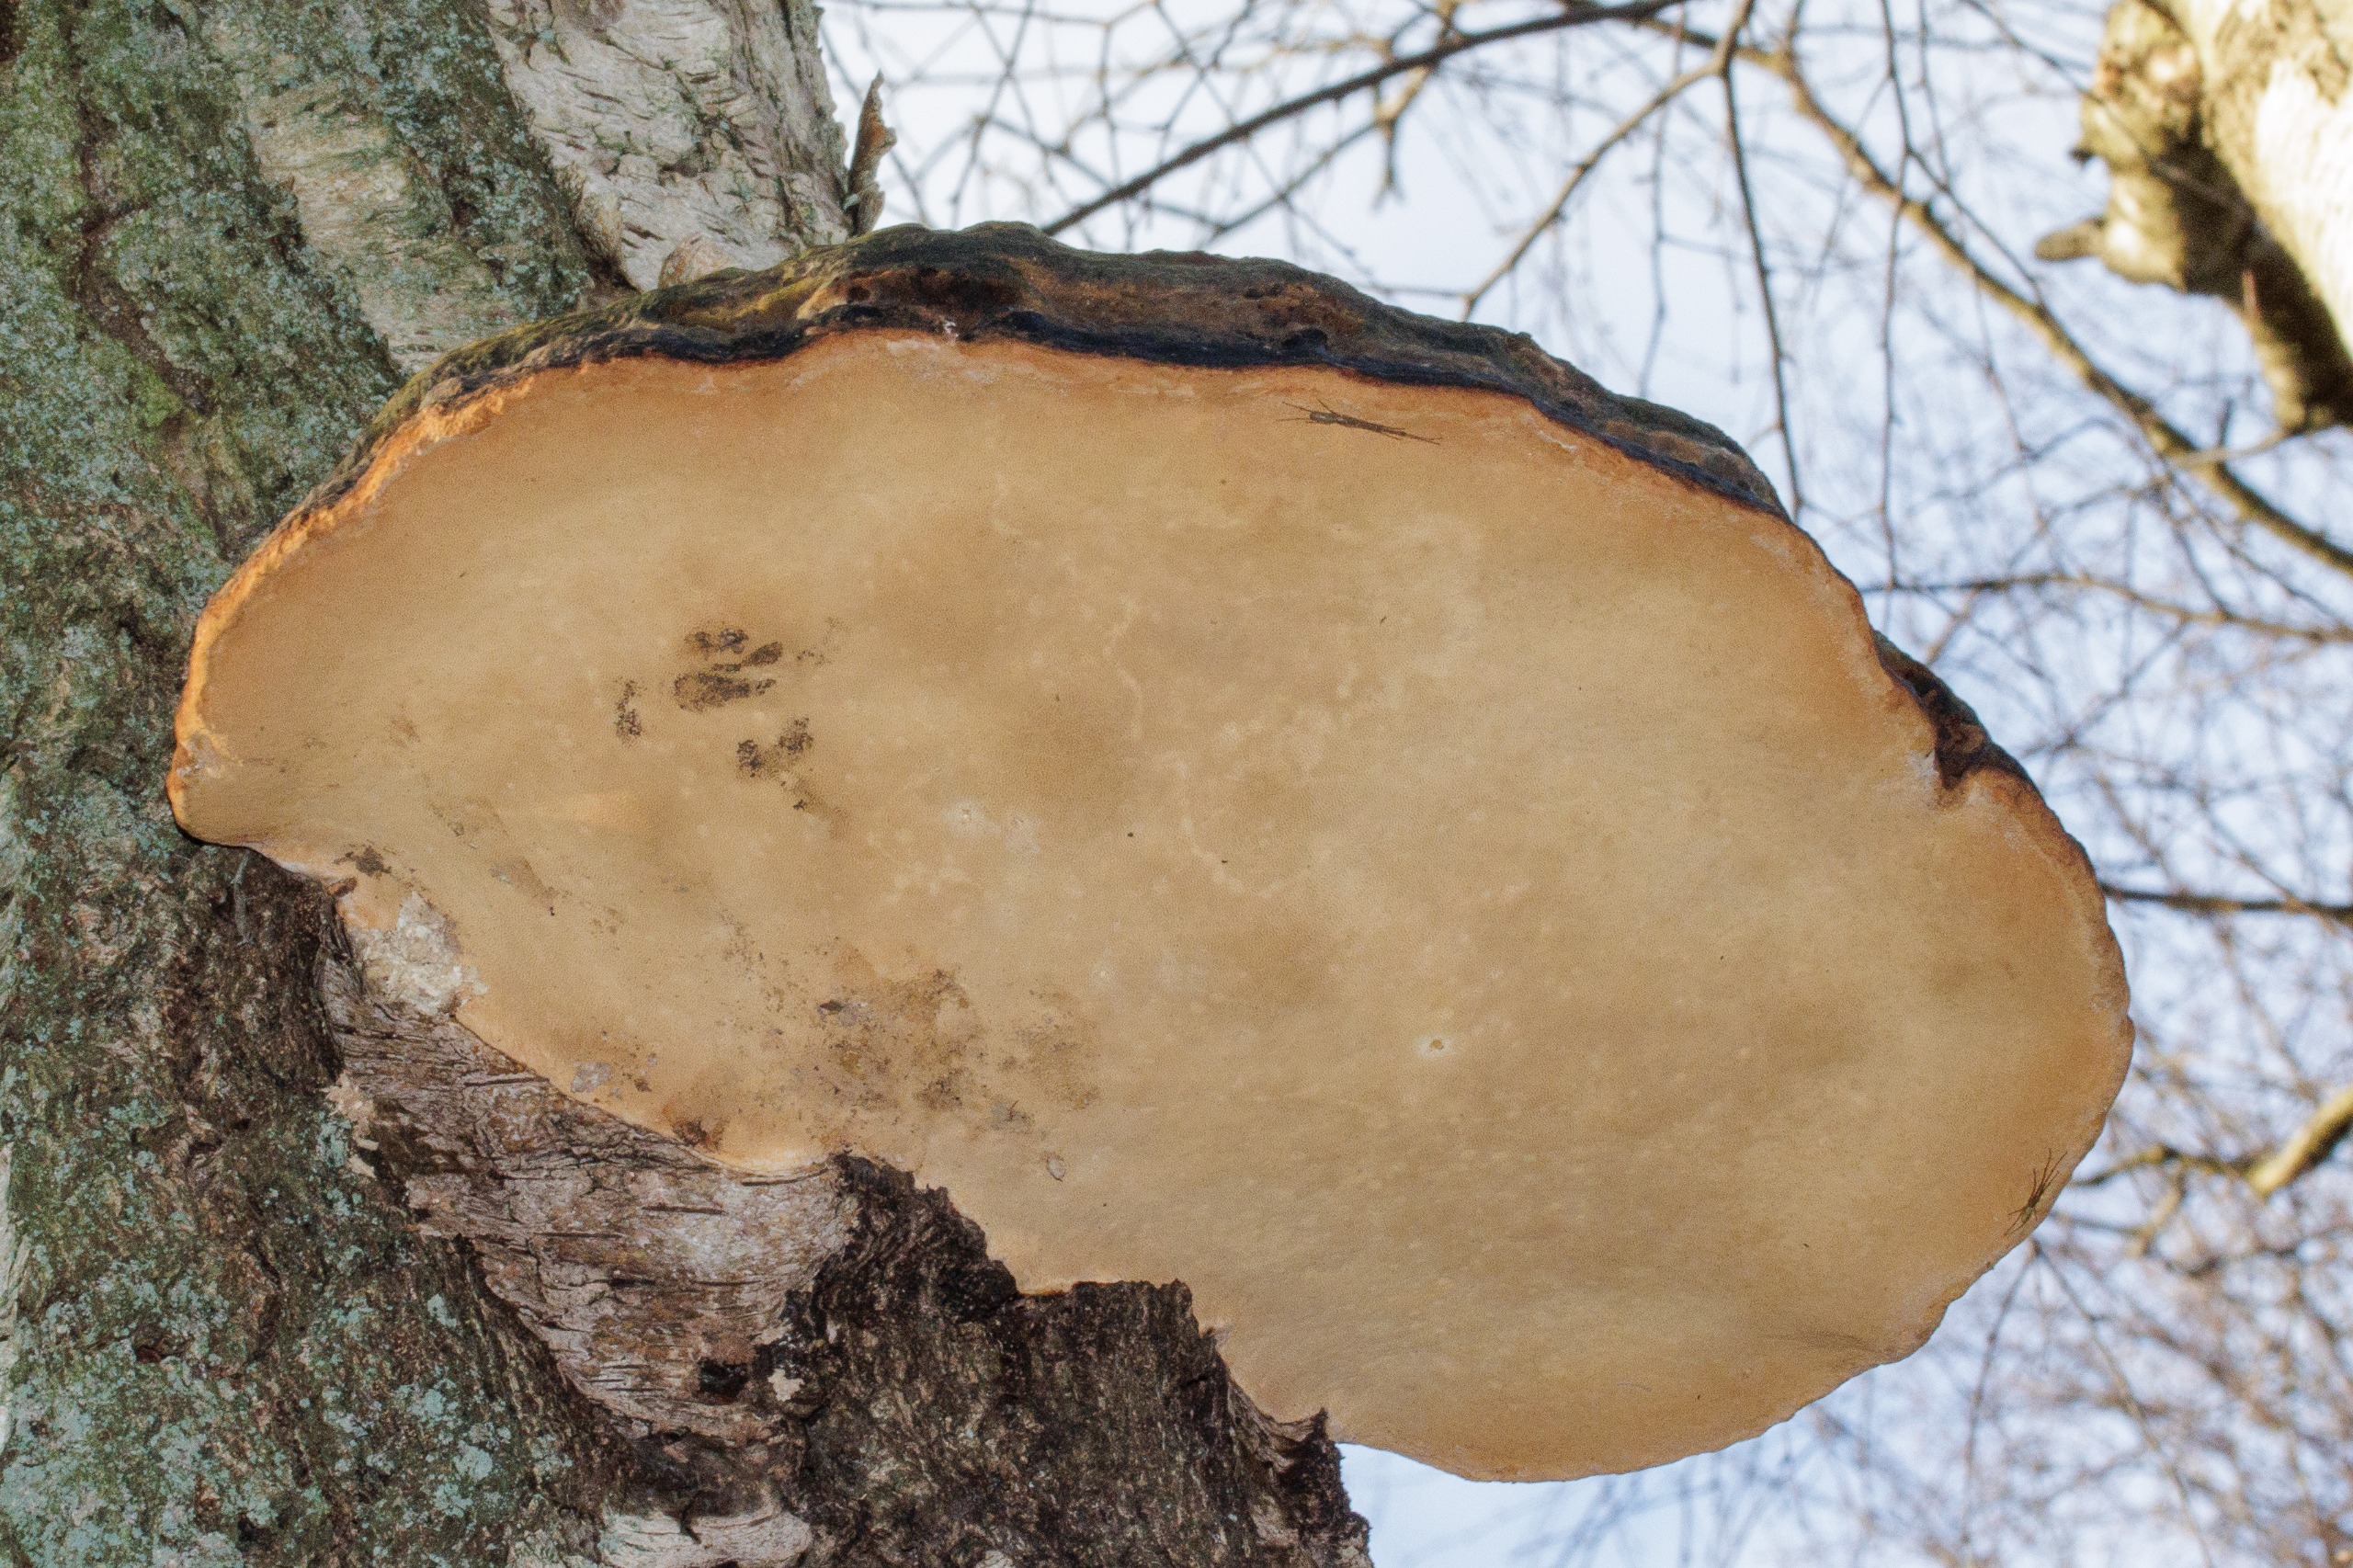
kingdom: Fungi
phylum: Basidiomycota
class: Agaricomycetes
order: Polyporales
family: Fomitopsidaceae
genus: Fomitopsis
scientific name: Fomitopsis pinicola
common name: Randbæltet hovporesvamp
